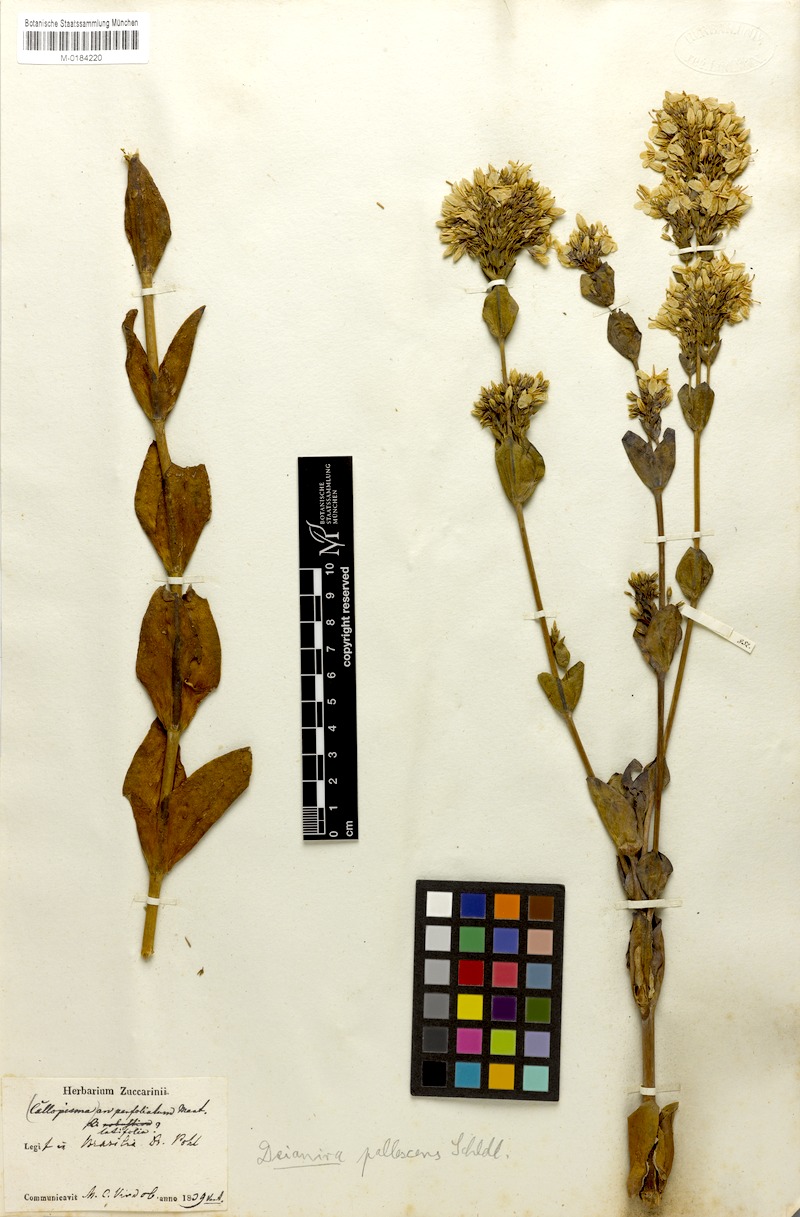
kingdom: Plantae
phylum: Tracheophyta
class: Magnoliopsida
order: Gentianales
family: Gentianaceae
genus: Deianira
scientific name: Deianira pallescens
